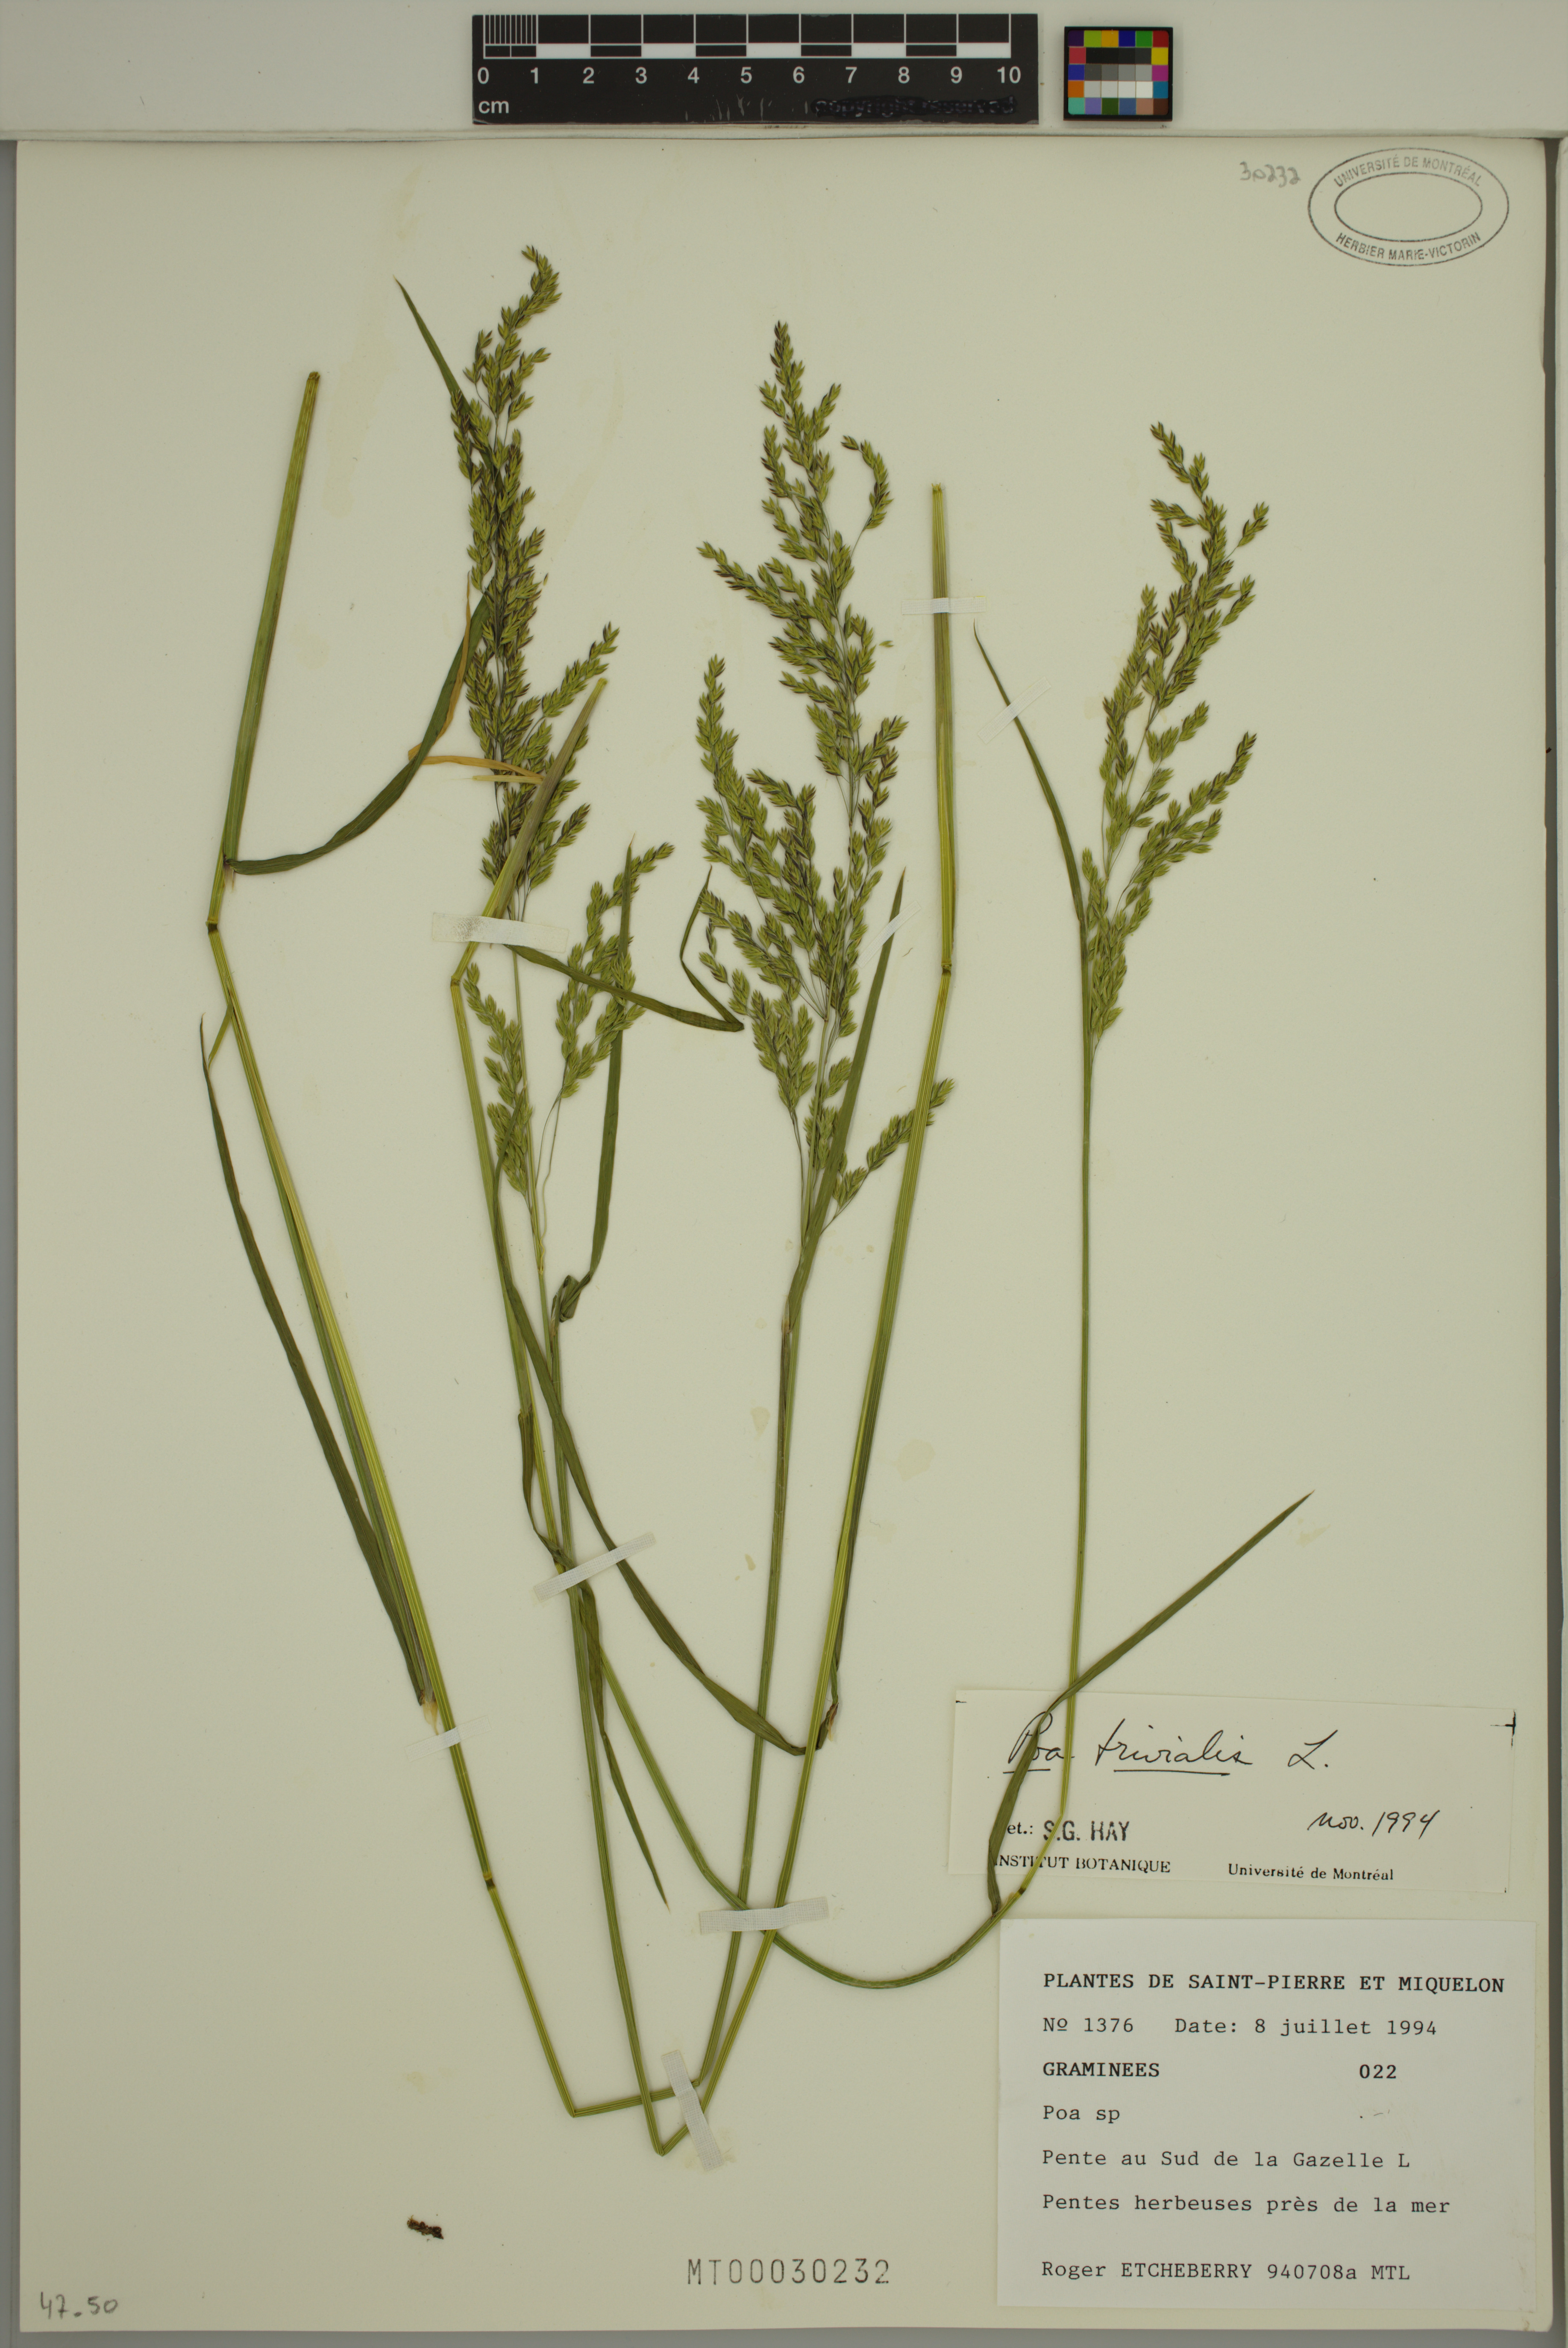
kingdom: Plantae
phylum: Tracheophyta
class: Liliopsida
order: Poales
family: Poaceae
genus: Poa
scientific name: Poa trivialis
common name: Rough bluegrass
